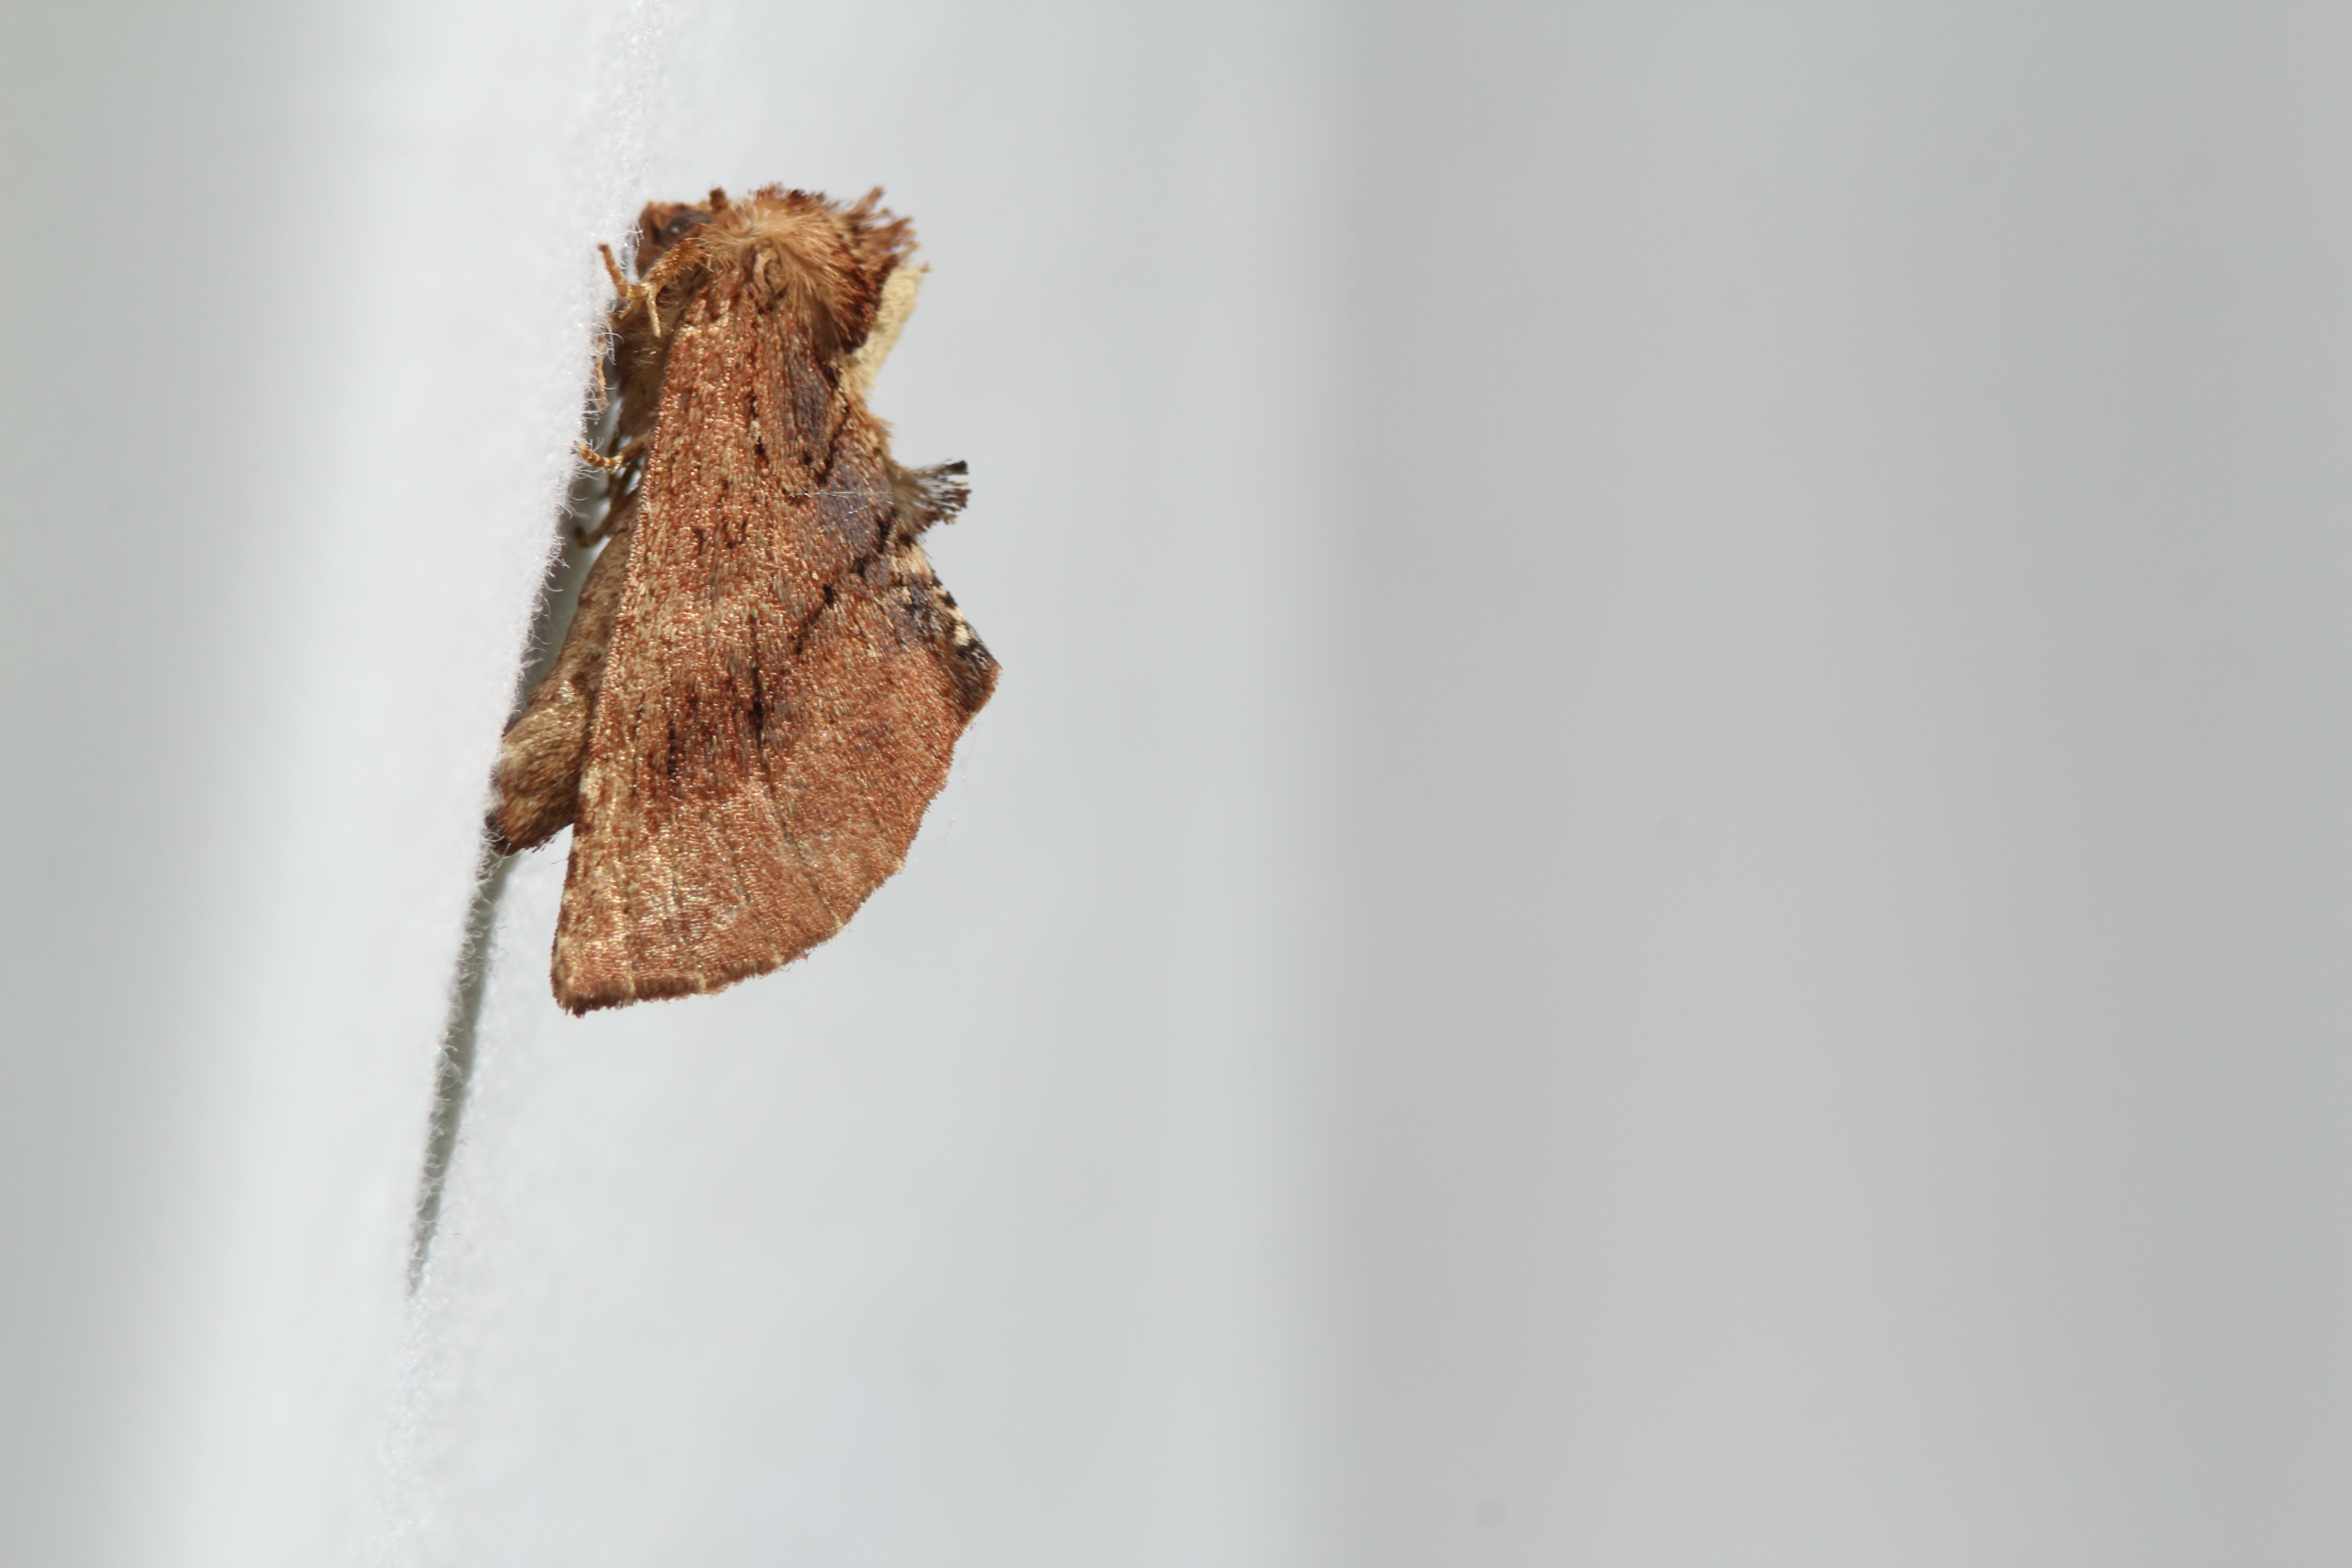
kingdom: Animalia
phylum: Arthropoda
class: Insecta
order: Lepidoptera
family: Notodontidae
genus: Ptilodon
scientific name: Ptilodon capucina
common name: Coxcomb prominent
